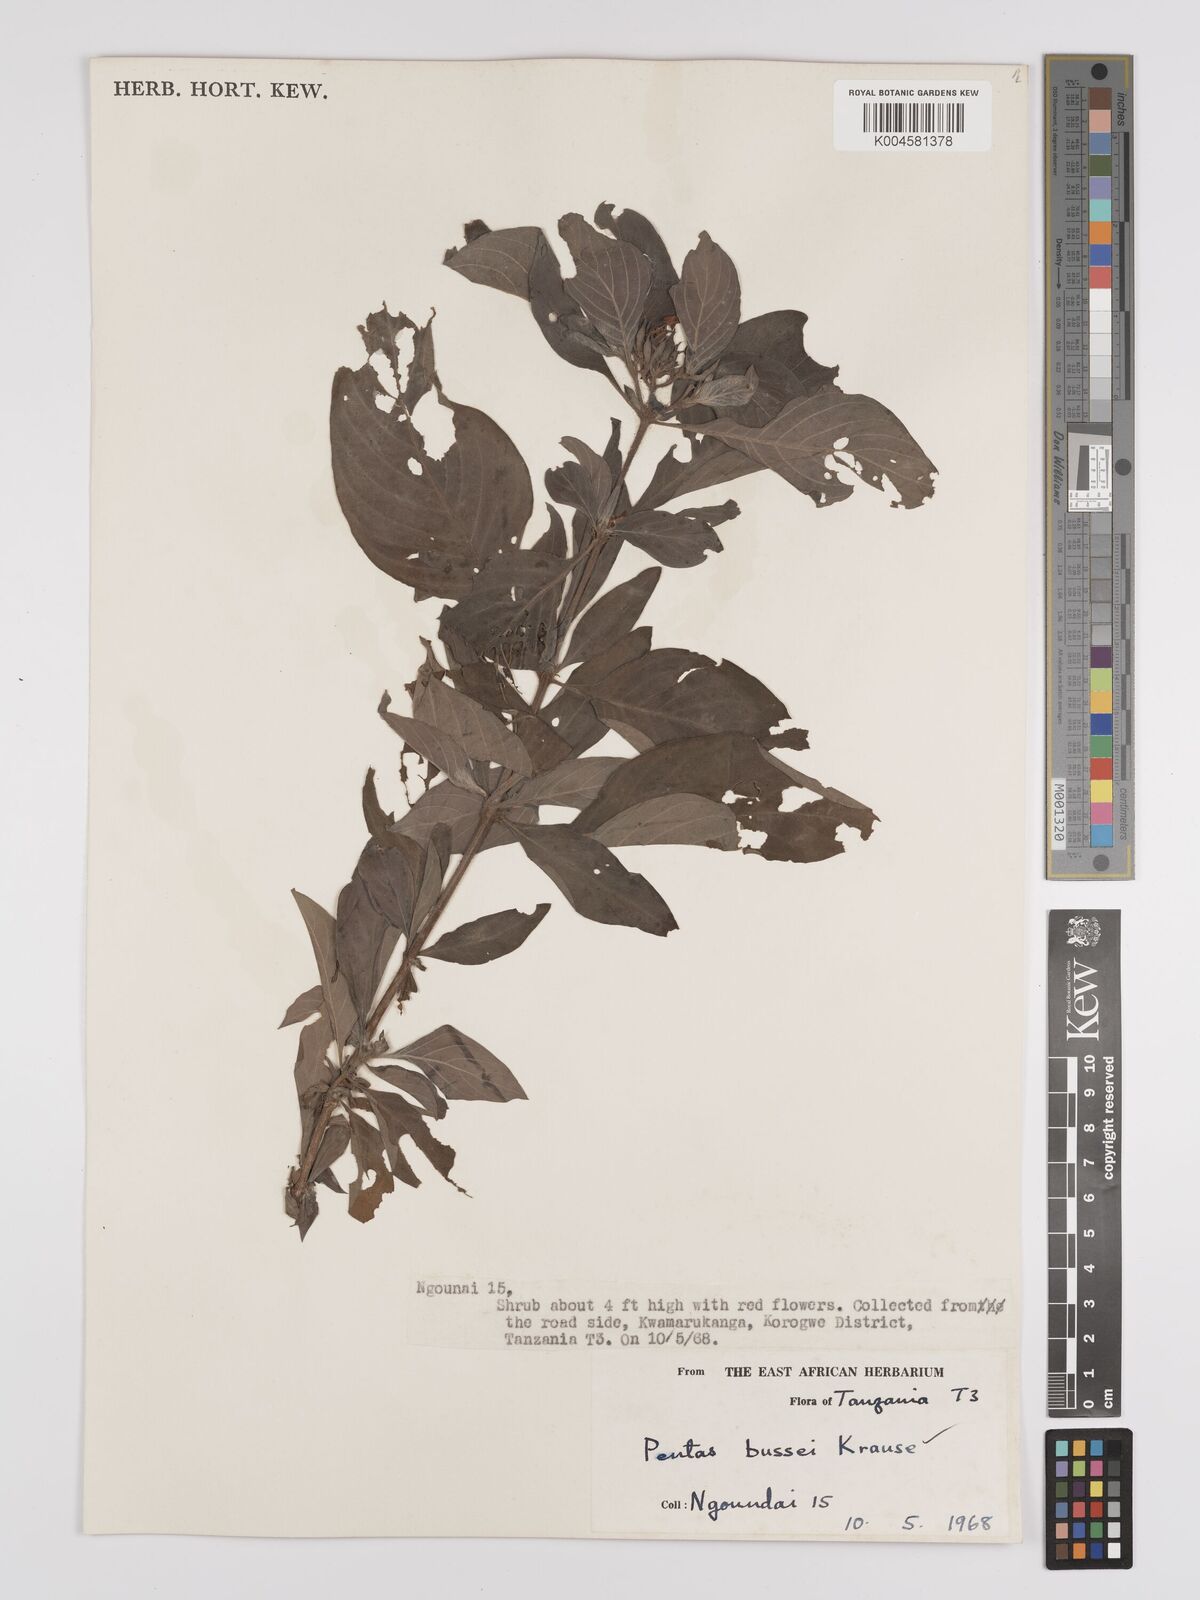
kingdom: Plantae
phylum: Tracheophyta
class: Magnoliopsida
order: Gentianales
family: Rubiaceae
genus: Rhodopentas
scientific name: Rhodopentas bussei
